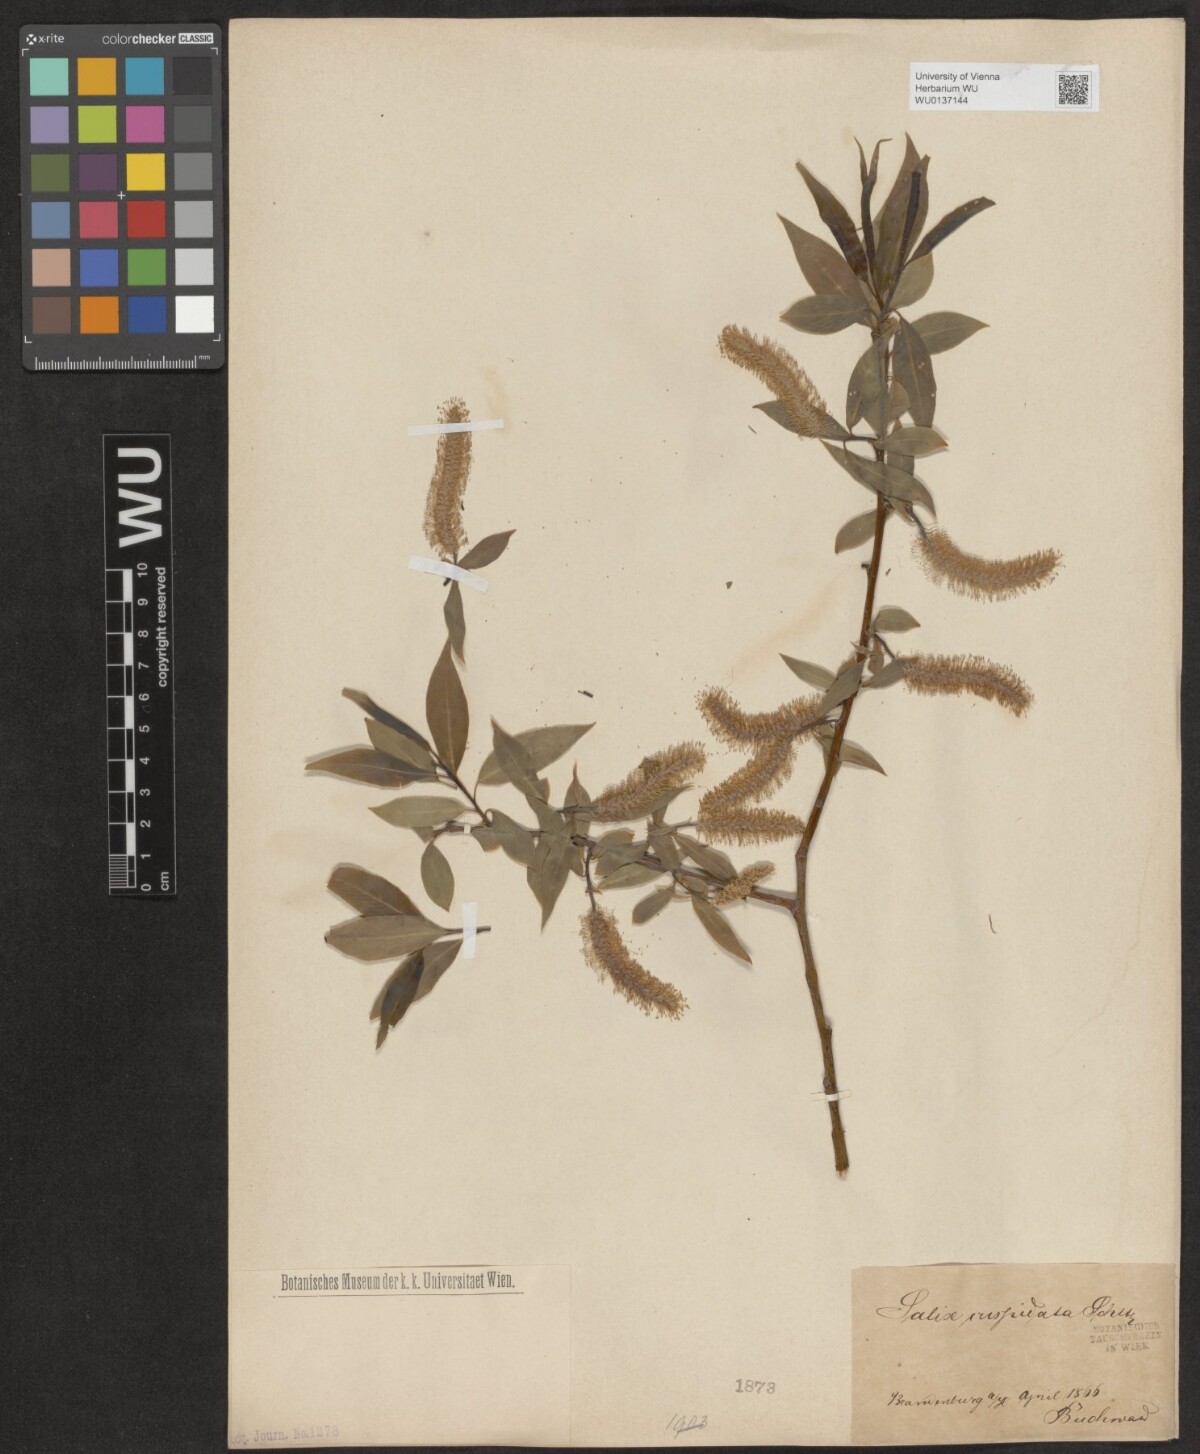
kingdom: Plantae
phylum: Tracheophyta
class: Magnoliopsida
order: Malpighiales
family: Salicaceae
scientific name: Salicaceae
